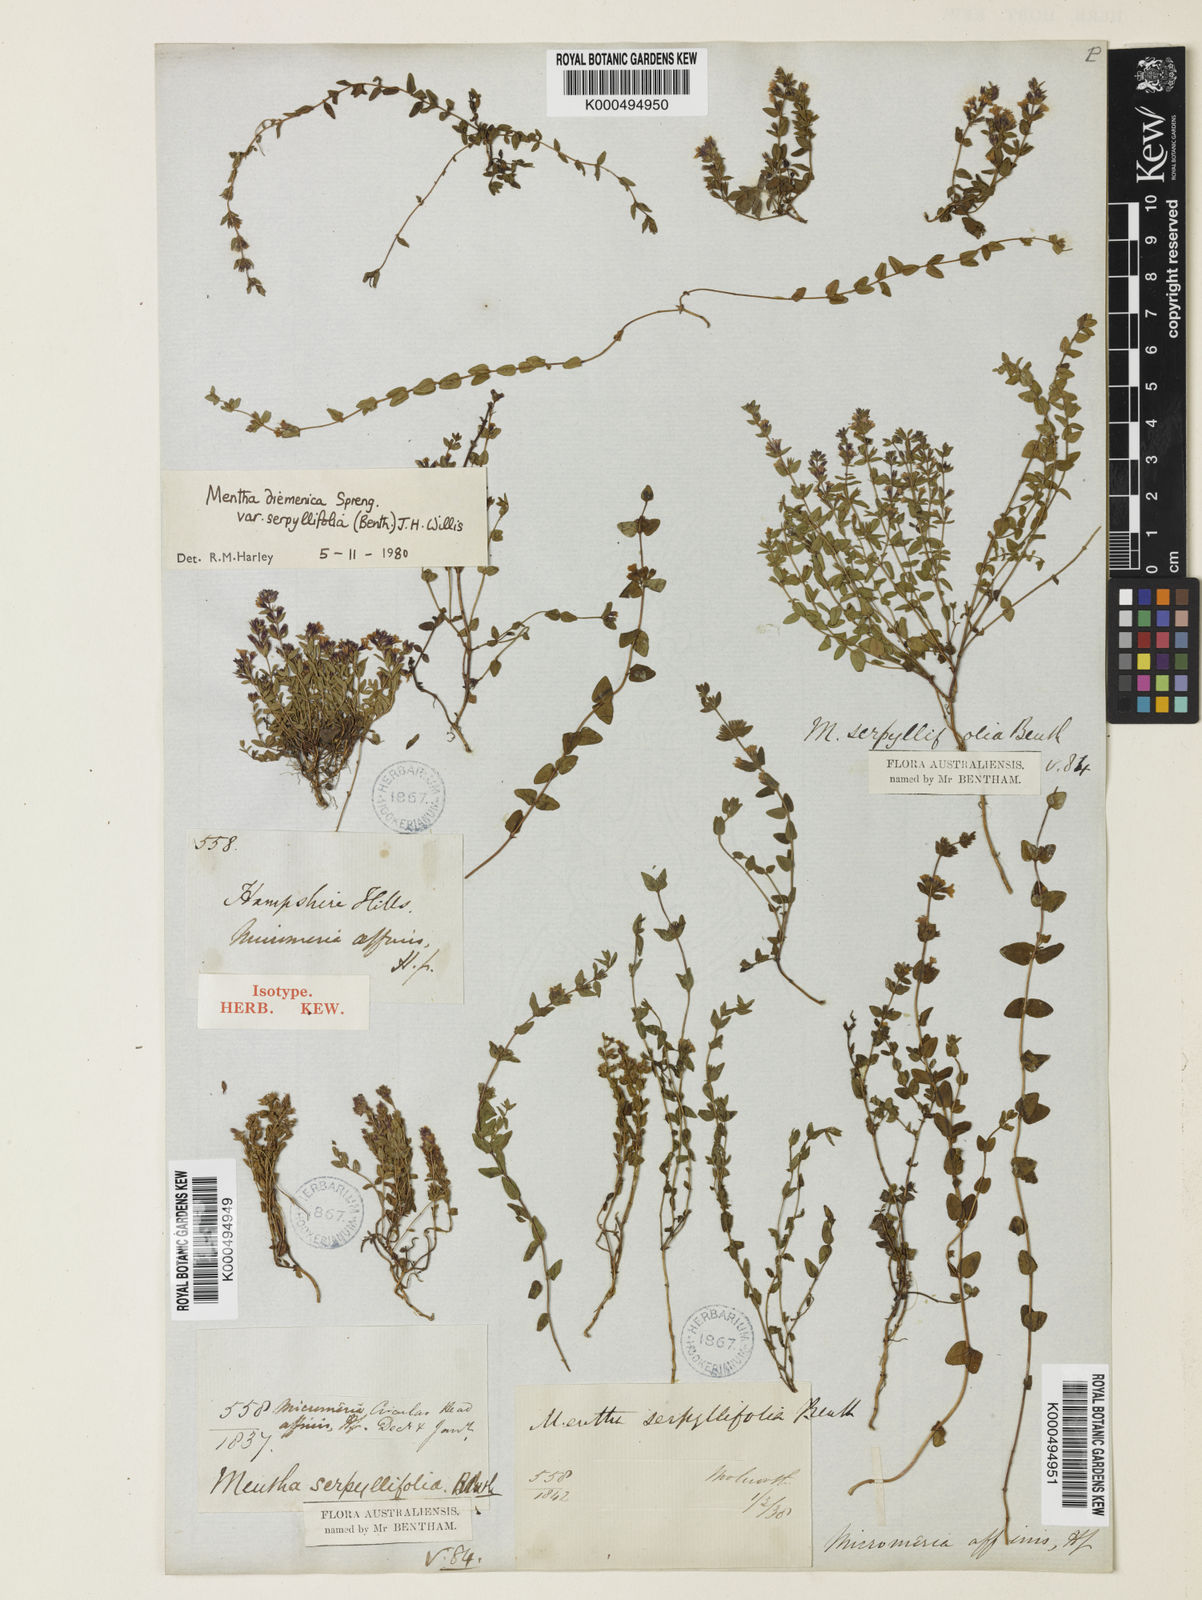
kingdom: Plantae
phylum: Tracheophyta
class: Magnoliopsida
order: Lamiales
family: Lamiaceae
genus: Mentha
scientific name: Mentha diemenica
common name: Wild mint
